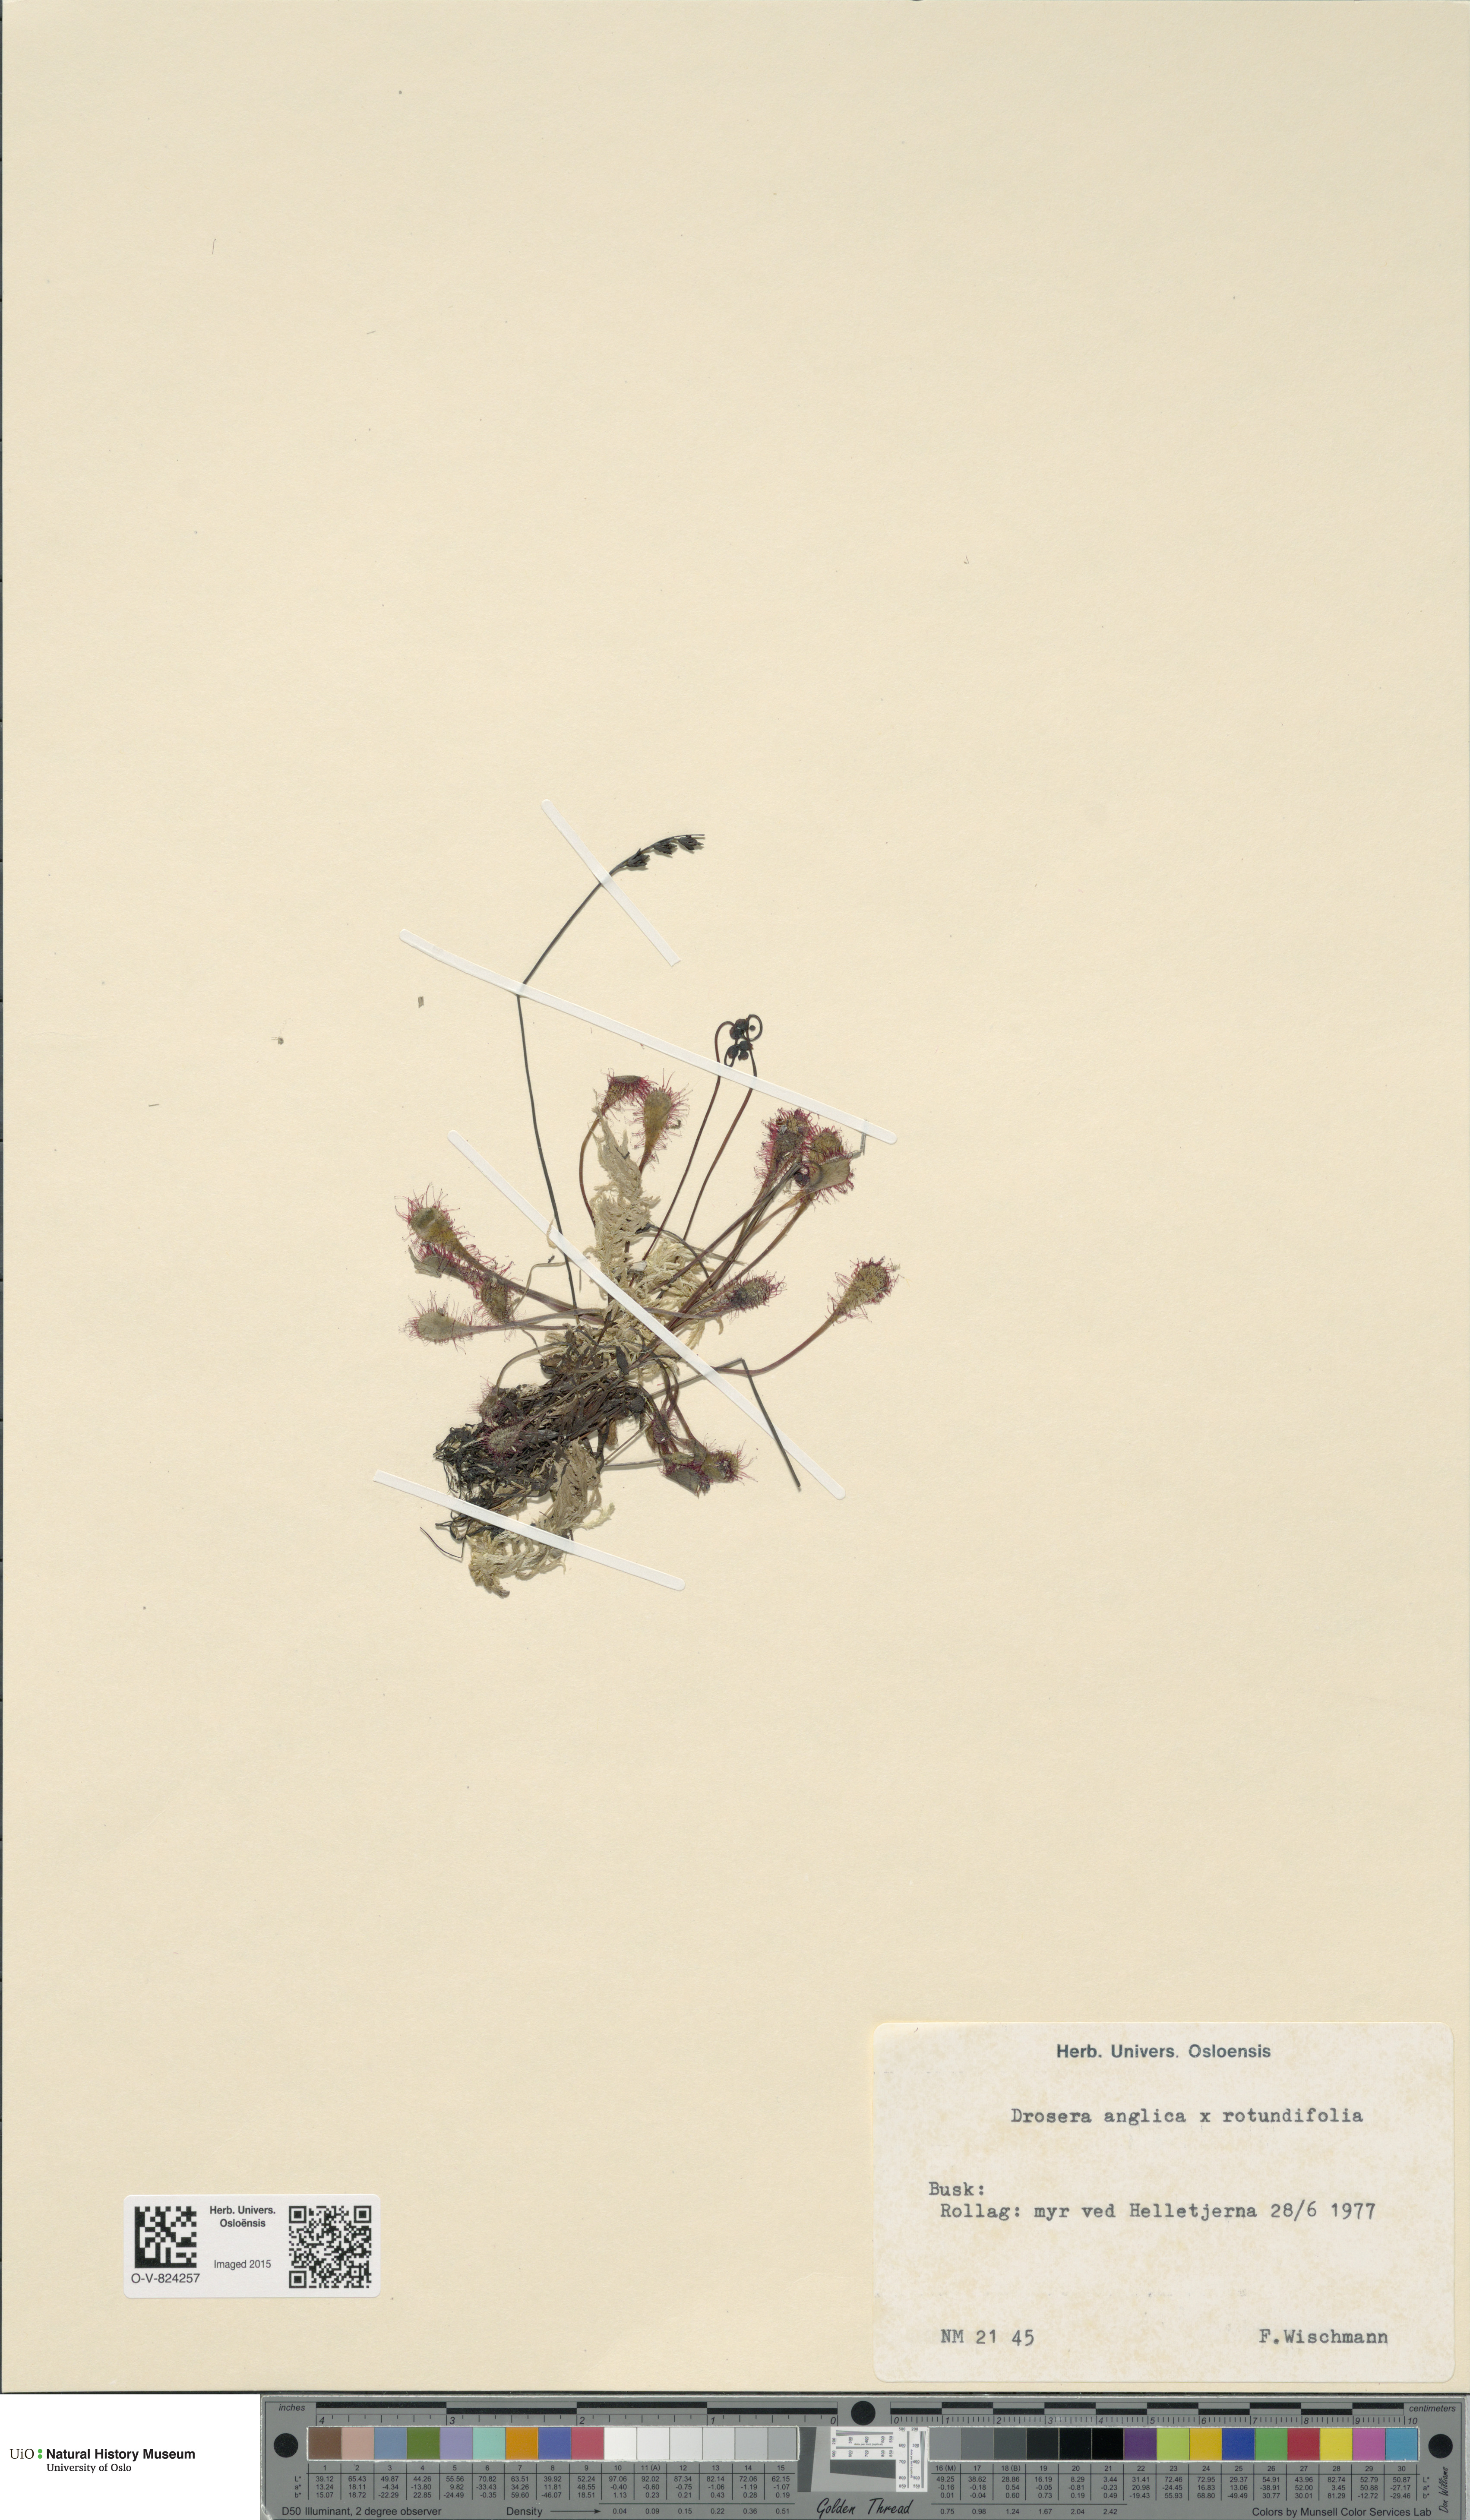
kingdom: Plantae
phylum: Tracheophyta
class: Magnoliopsida
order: Caryophyllales
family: Droseraceae
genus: Drosera
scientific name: Drosera
